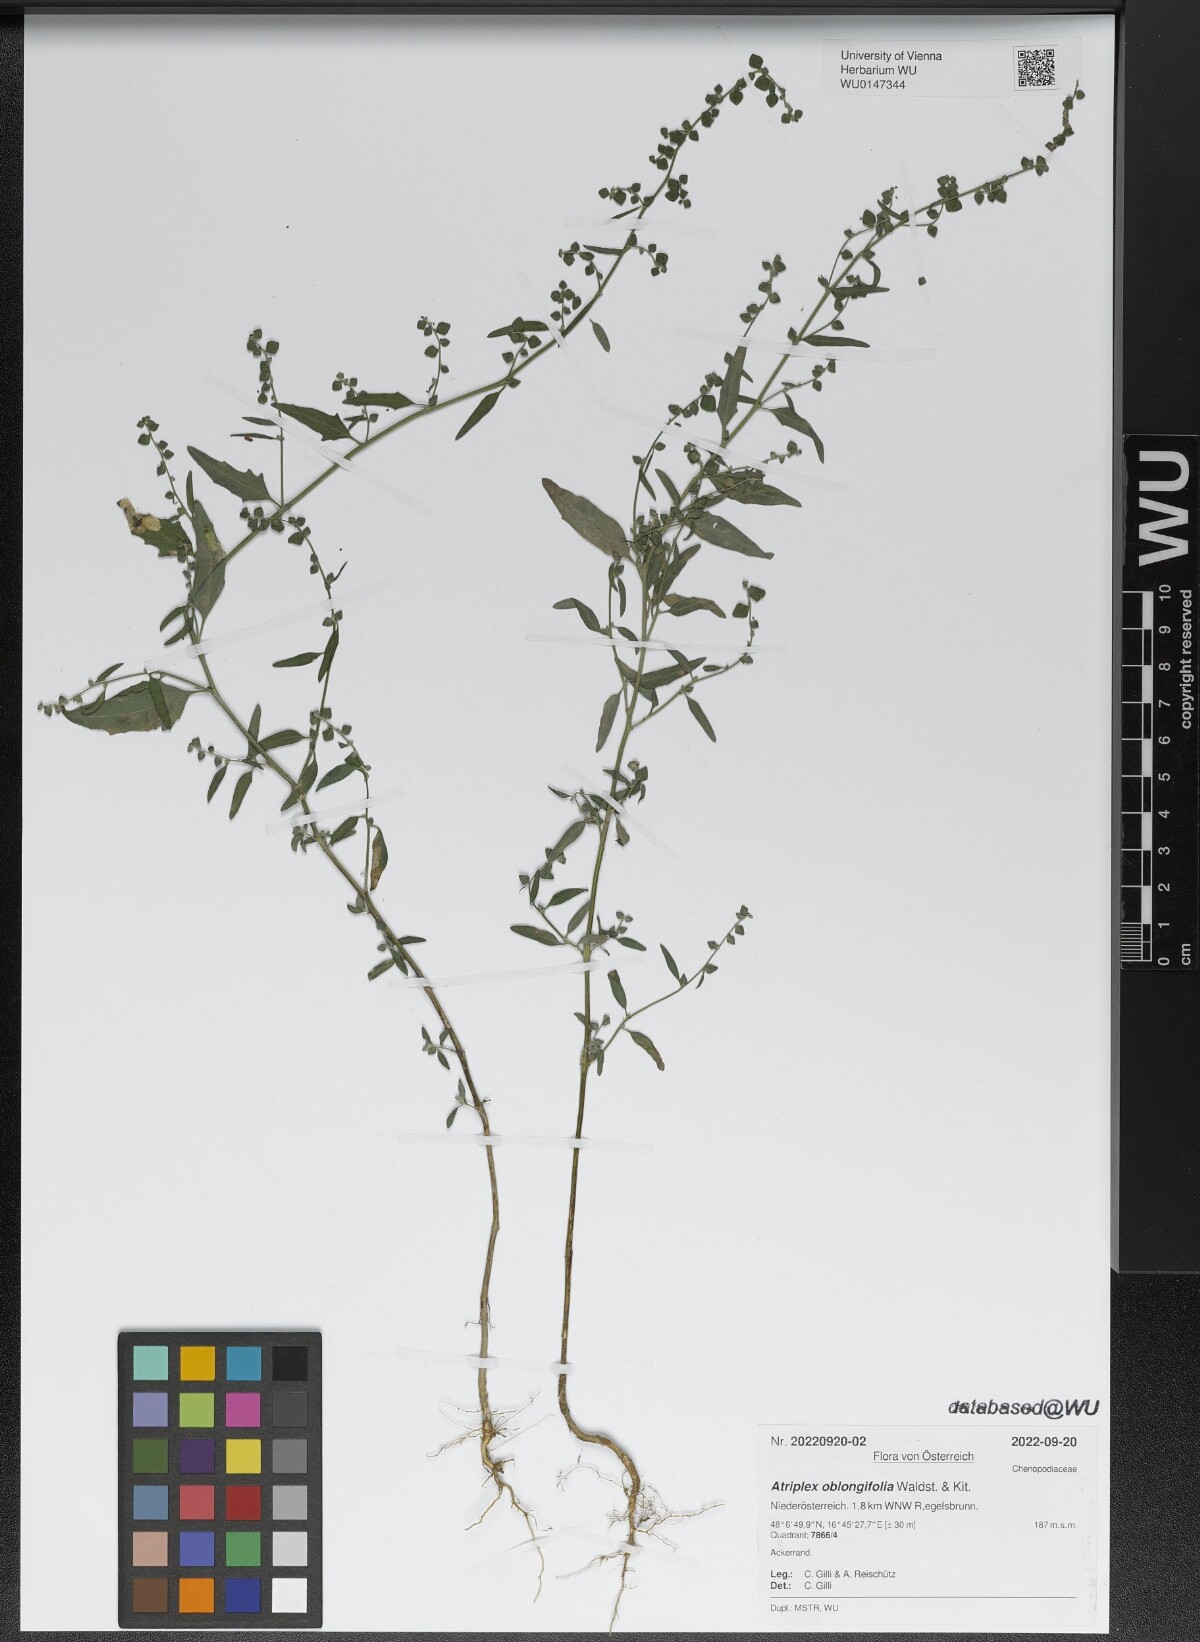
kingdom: Plantae
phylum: Tracheophyta
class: Magnoliopsida
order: Caryophyllales
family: Amaranthaceae
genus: Atriplex
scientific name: Atriplex oblongifolia
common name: Oblongleaf orache
